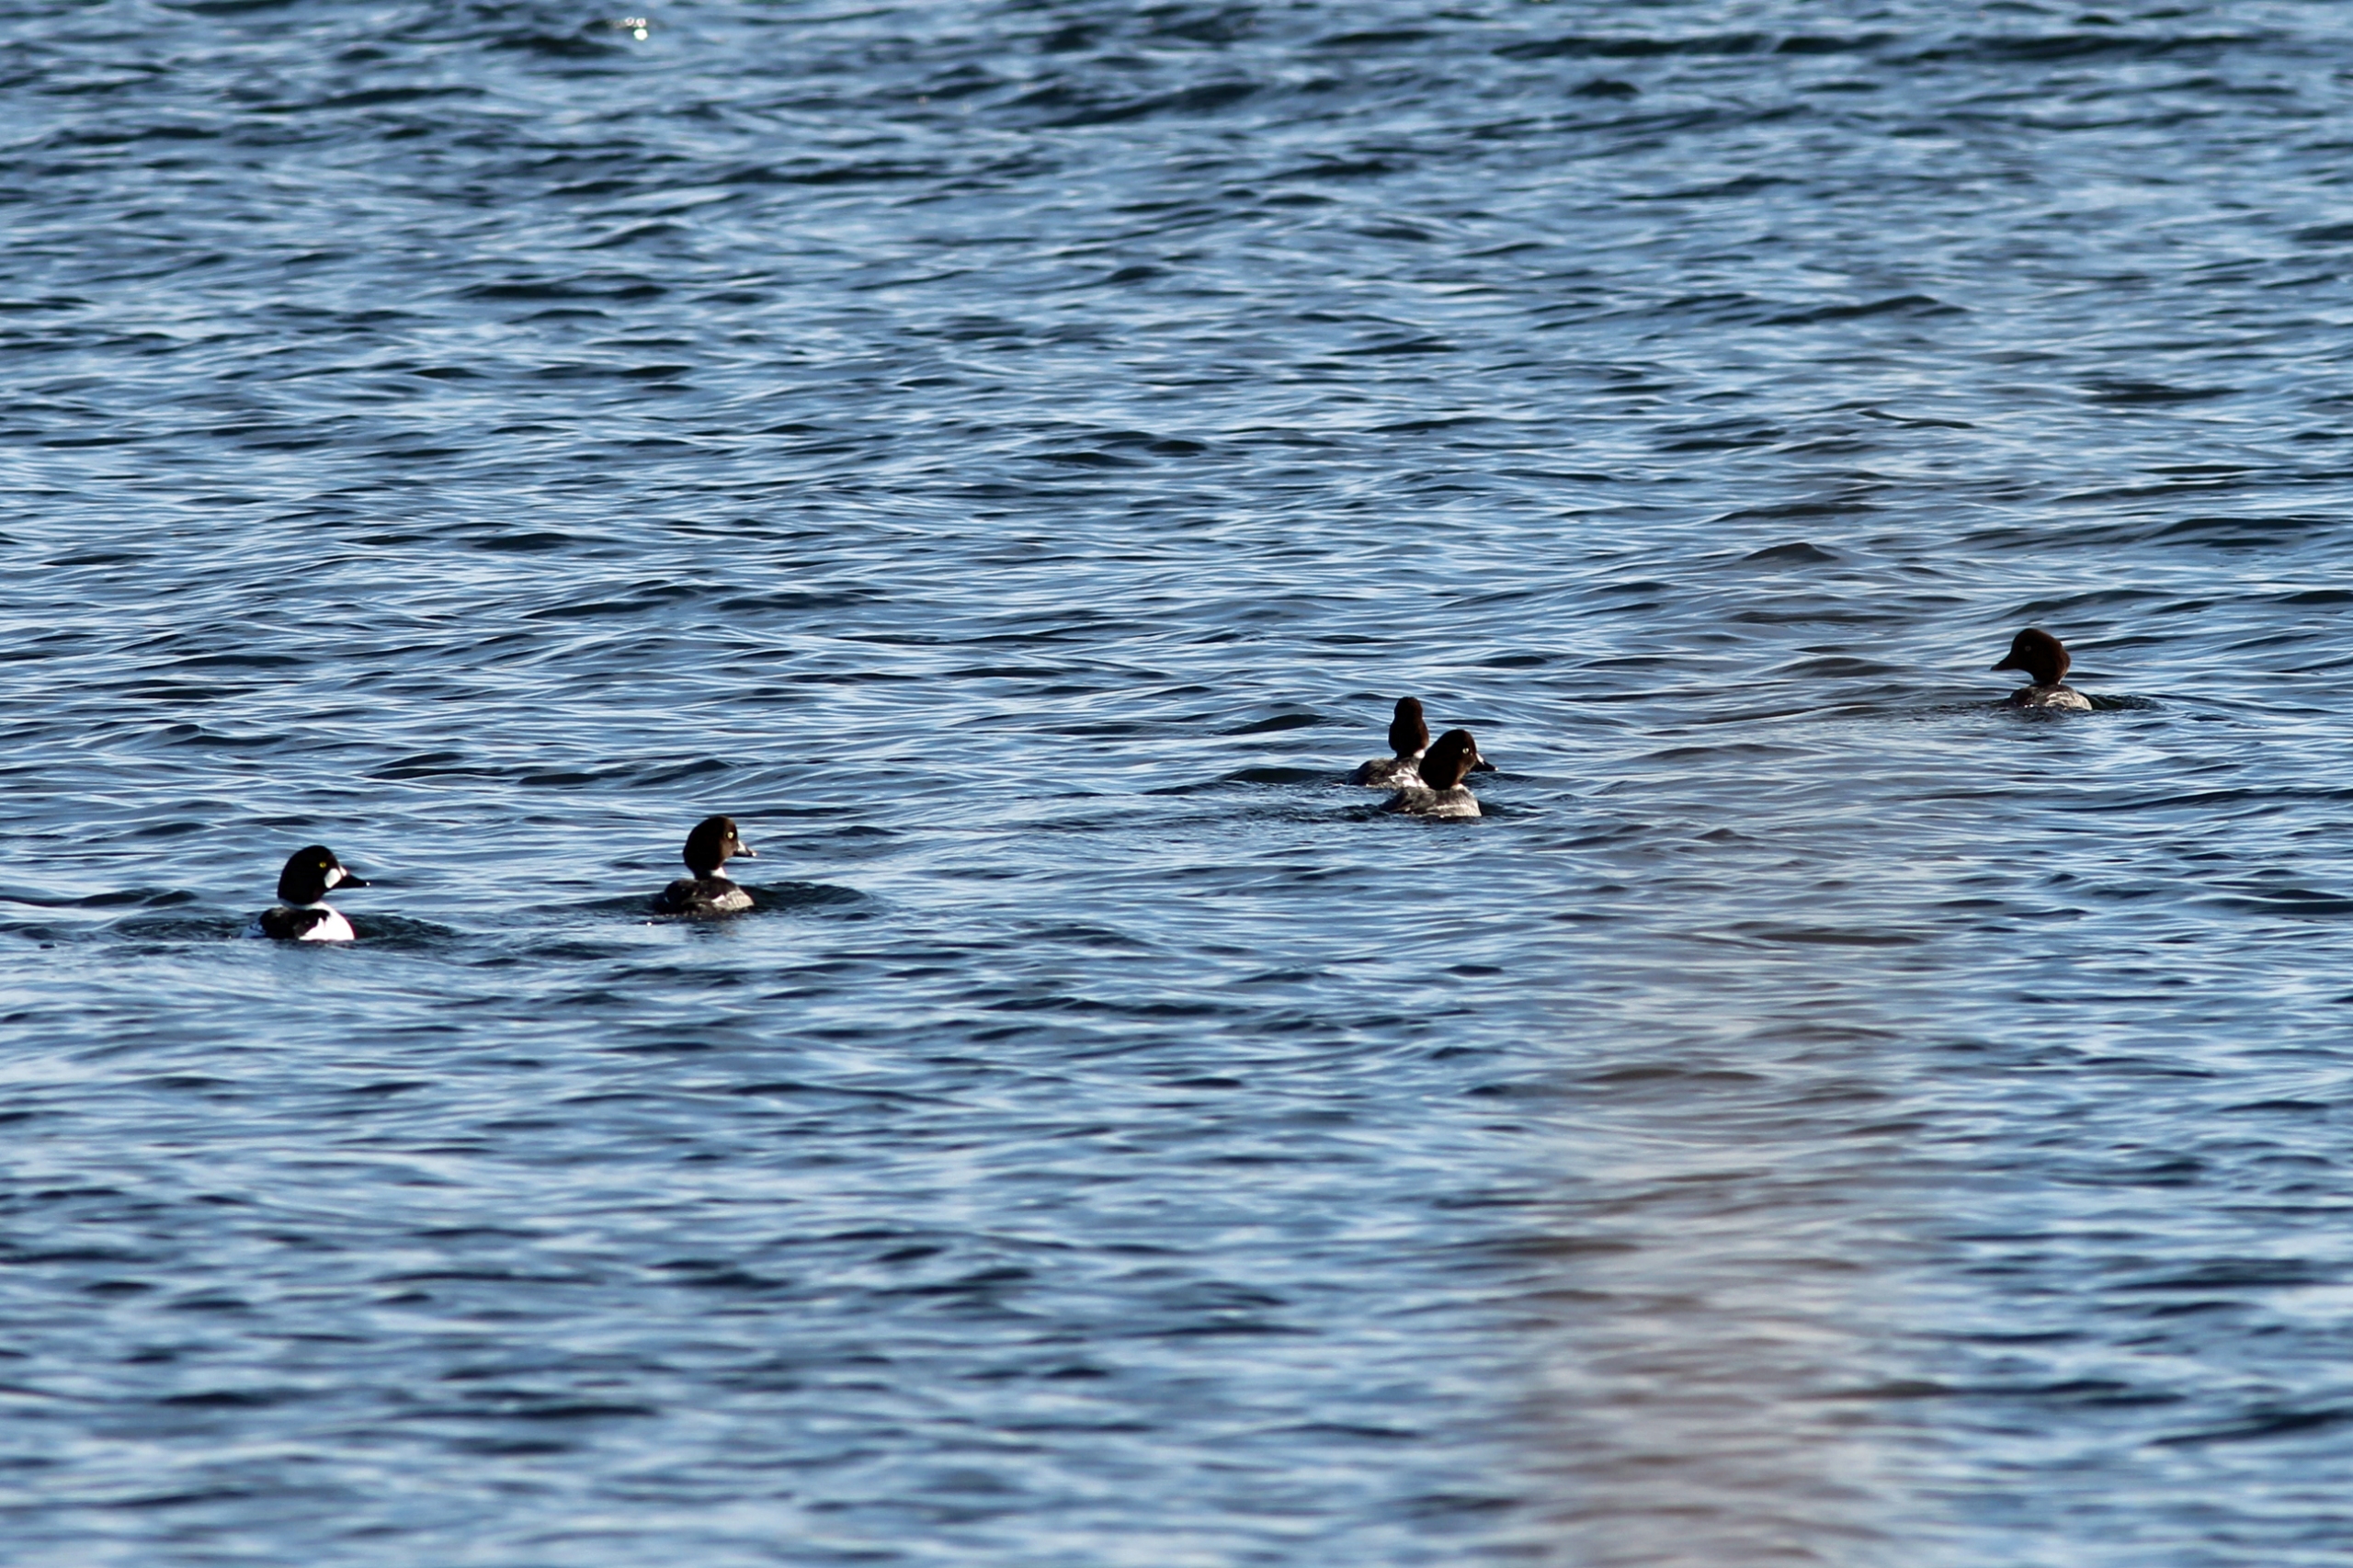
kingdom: Animalia
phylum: Chordata
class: Aves
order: Anseriformes
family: Anatidae
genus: Bucephala
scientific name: Bucephala clangula
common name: Hvinand
